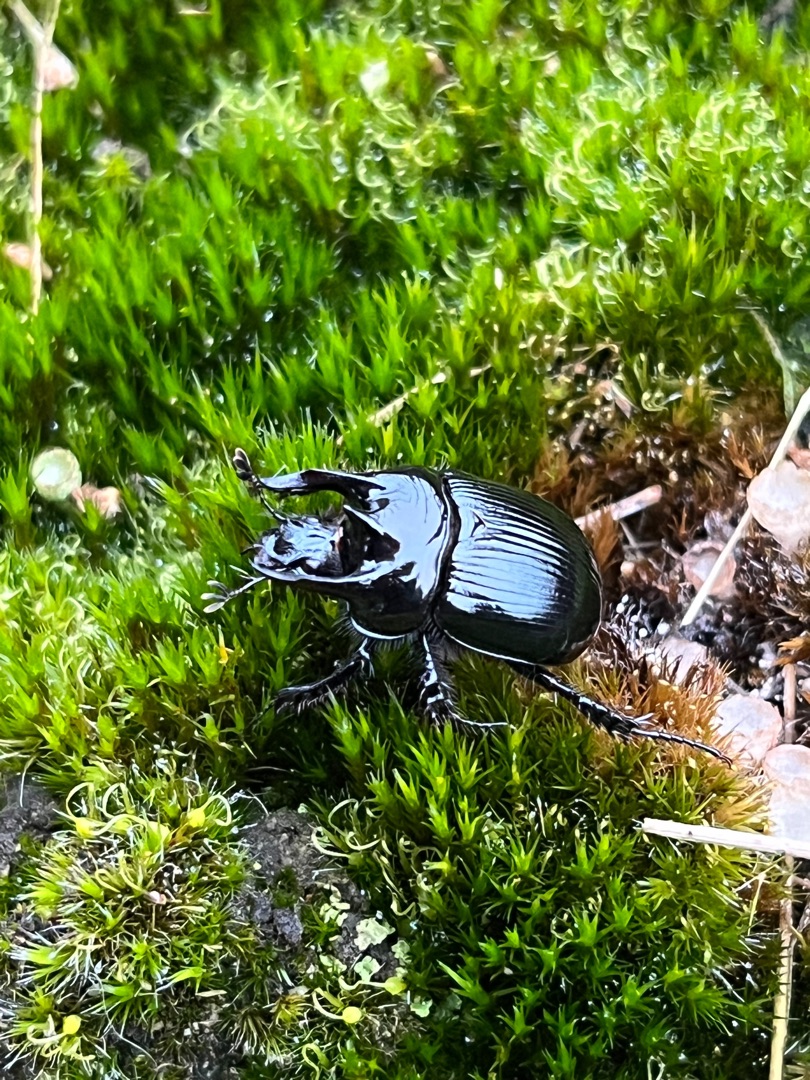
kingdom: Animalia
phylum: Arthropoda
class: Insecta
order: Coleoptera
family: Geotrupidae
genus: Typhaeus
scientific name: Typhaeus typhoeus
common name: Trehornet skarnbasse
